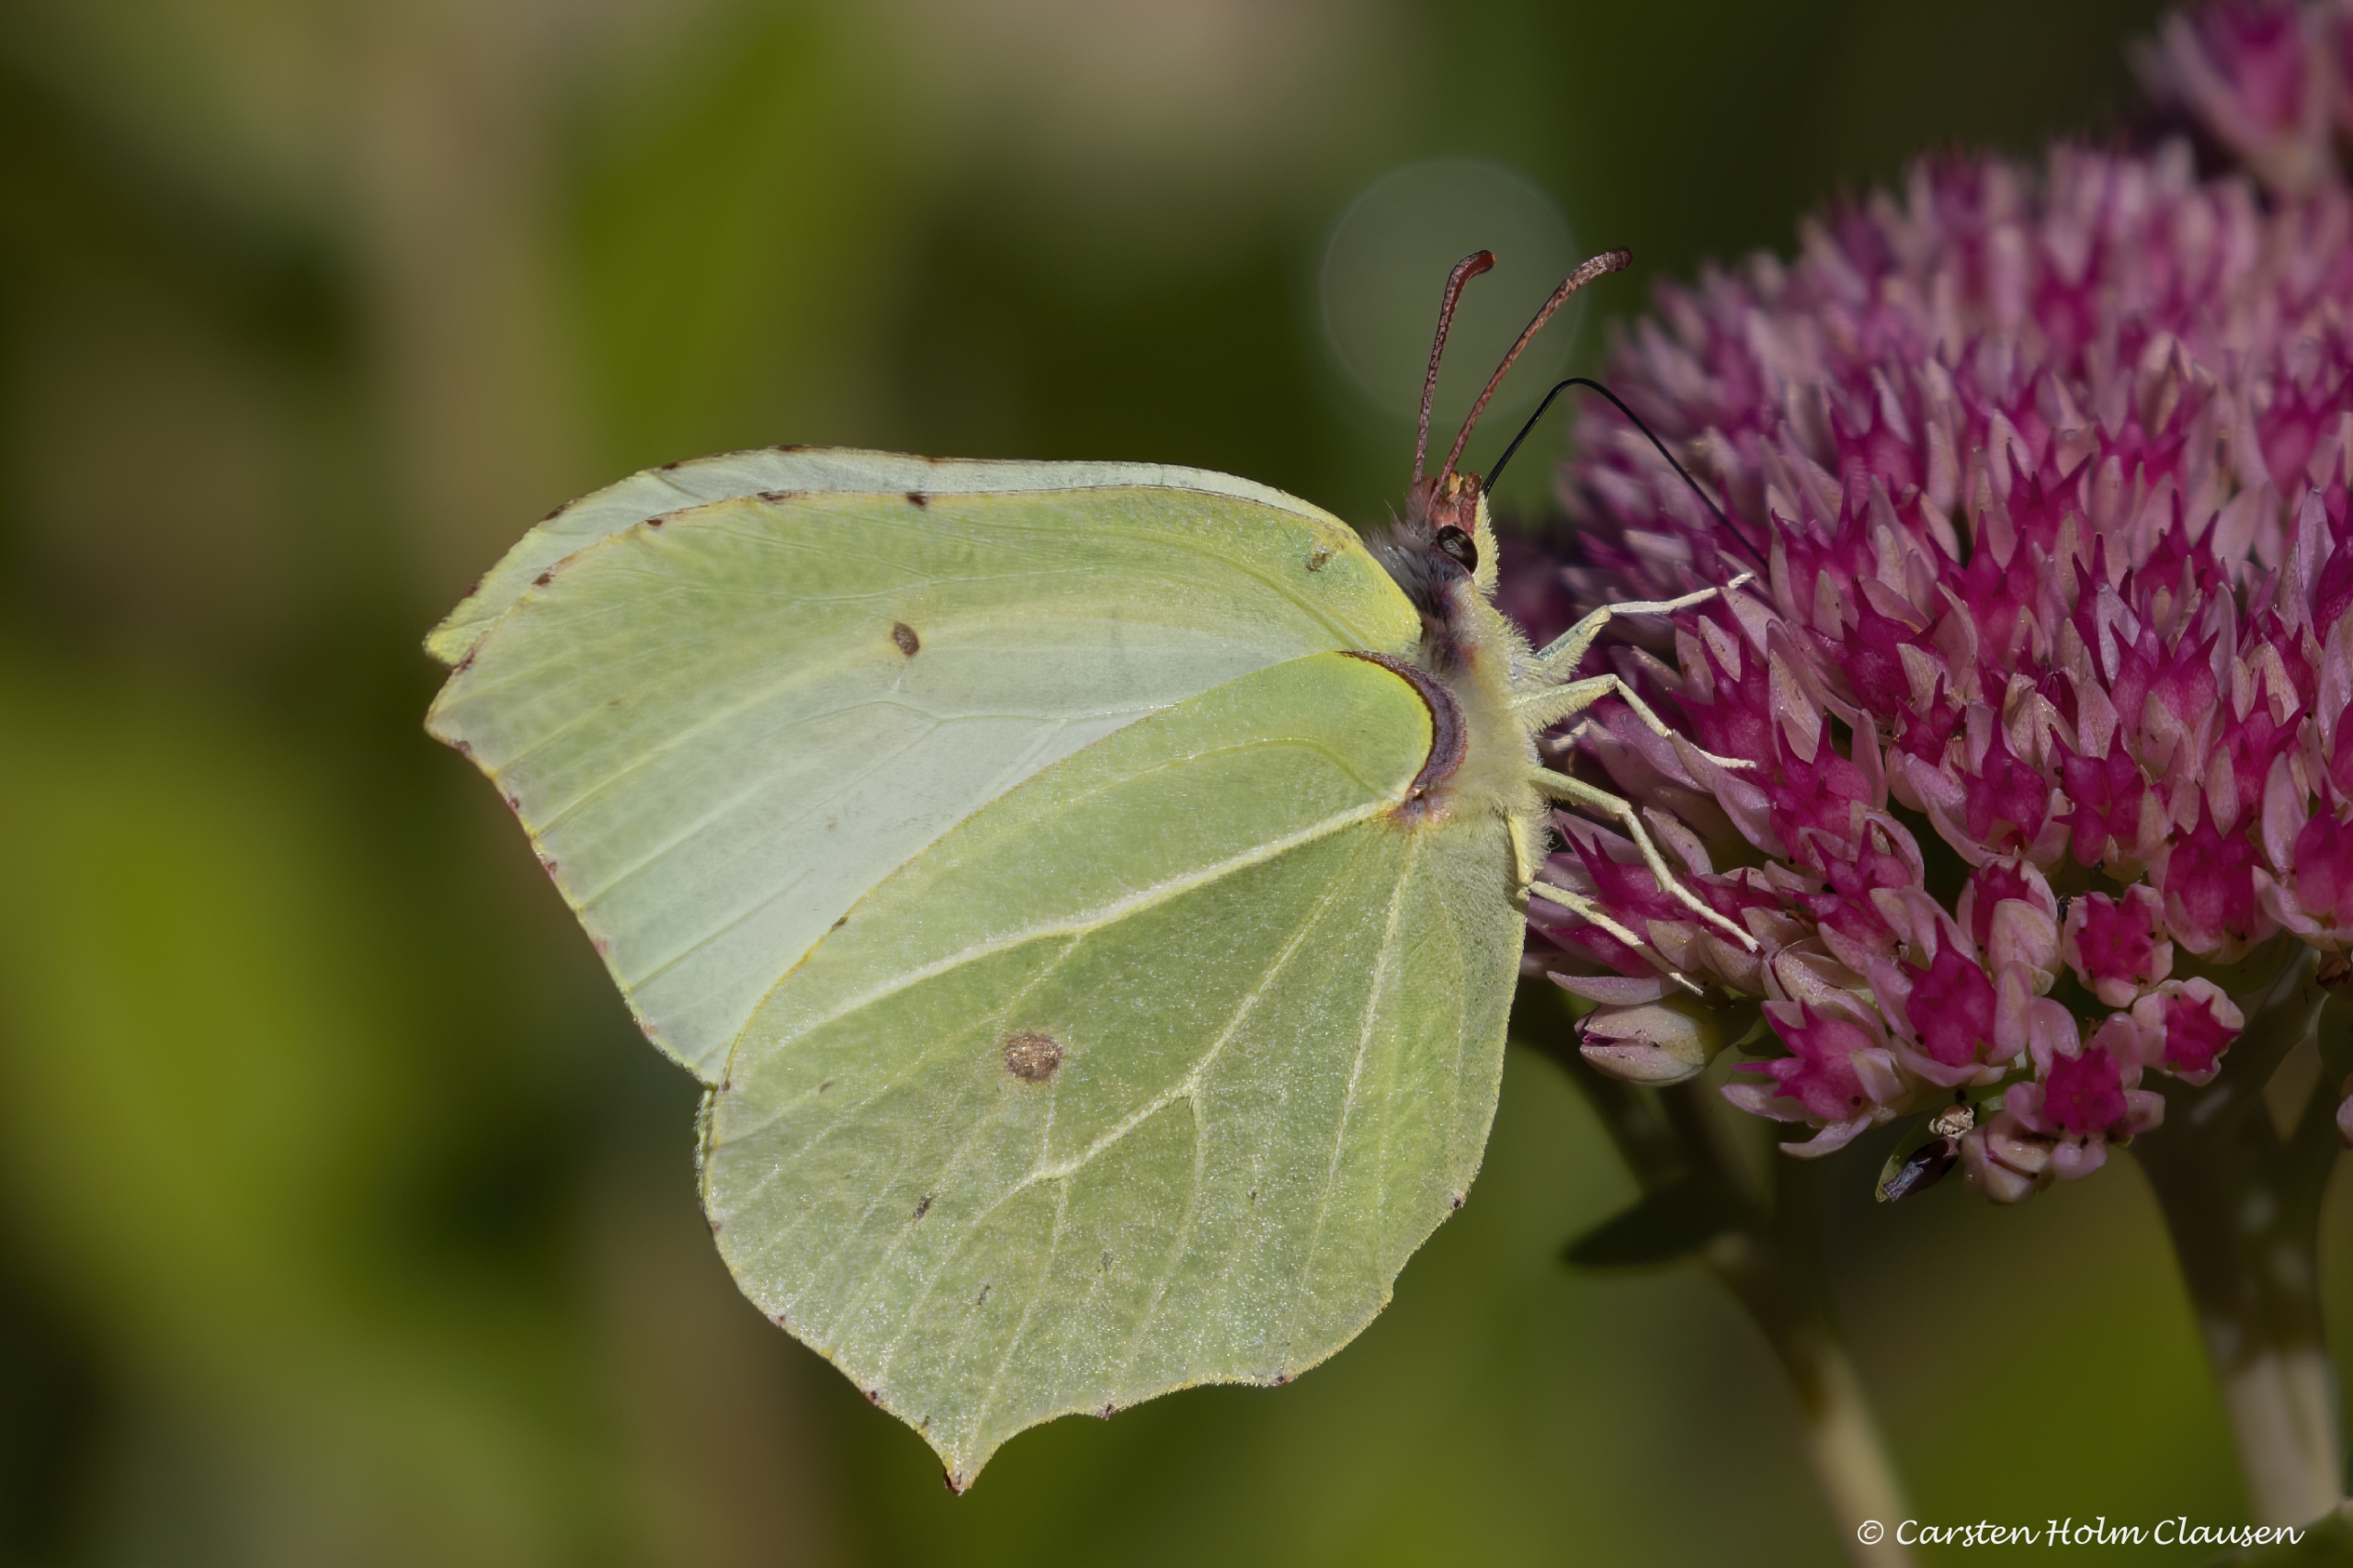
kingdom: Animalia
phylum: Arthropoda
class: Insecta
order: Lepidoptera
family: Pieridae
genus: Gonepteryx
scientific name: Gonepteryx rhamni
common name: Citronsommerfugl
